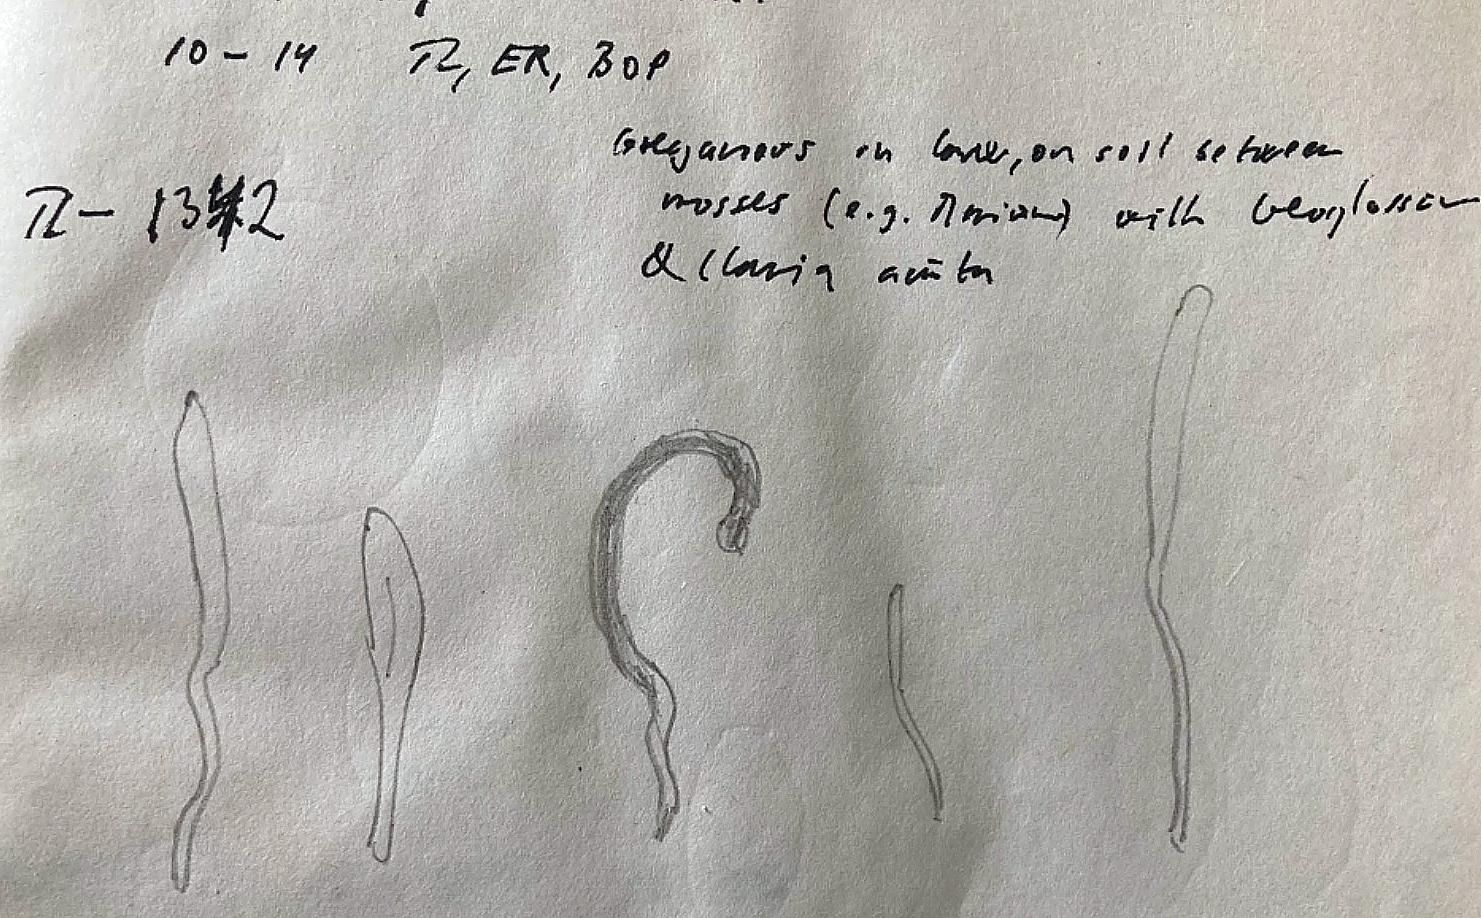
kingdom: Fungi
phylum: Basidiomycota
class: Agaricomycetes
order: Agaricales
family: Clavariaceae
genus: Clavaria
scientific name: Clavaria
